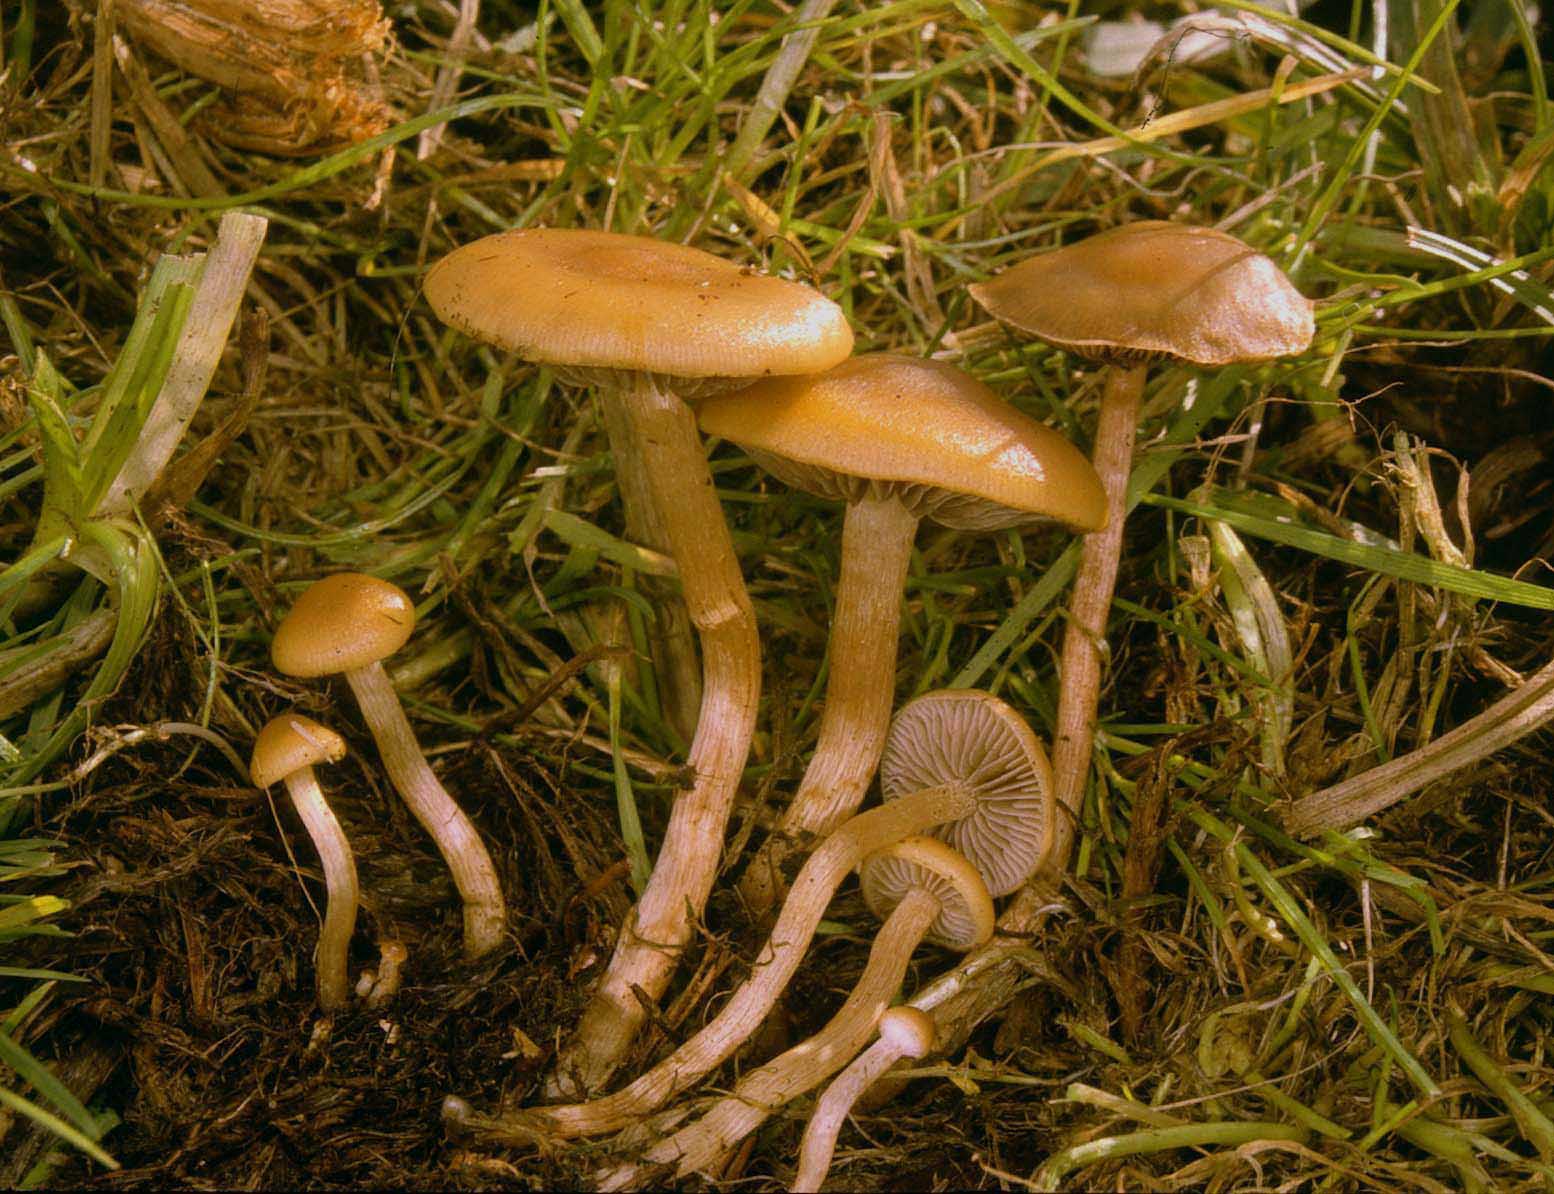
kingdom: Fungi
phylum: Basidiomycota
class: Agaricomycetes
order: Agaricales
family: Hymenogastraceae
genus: Psilocybe
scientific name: Psilocybe subviscida
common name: puklet stråhat
